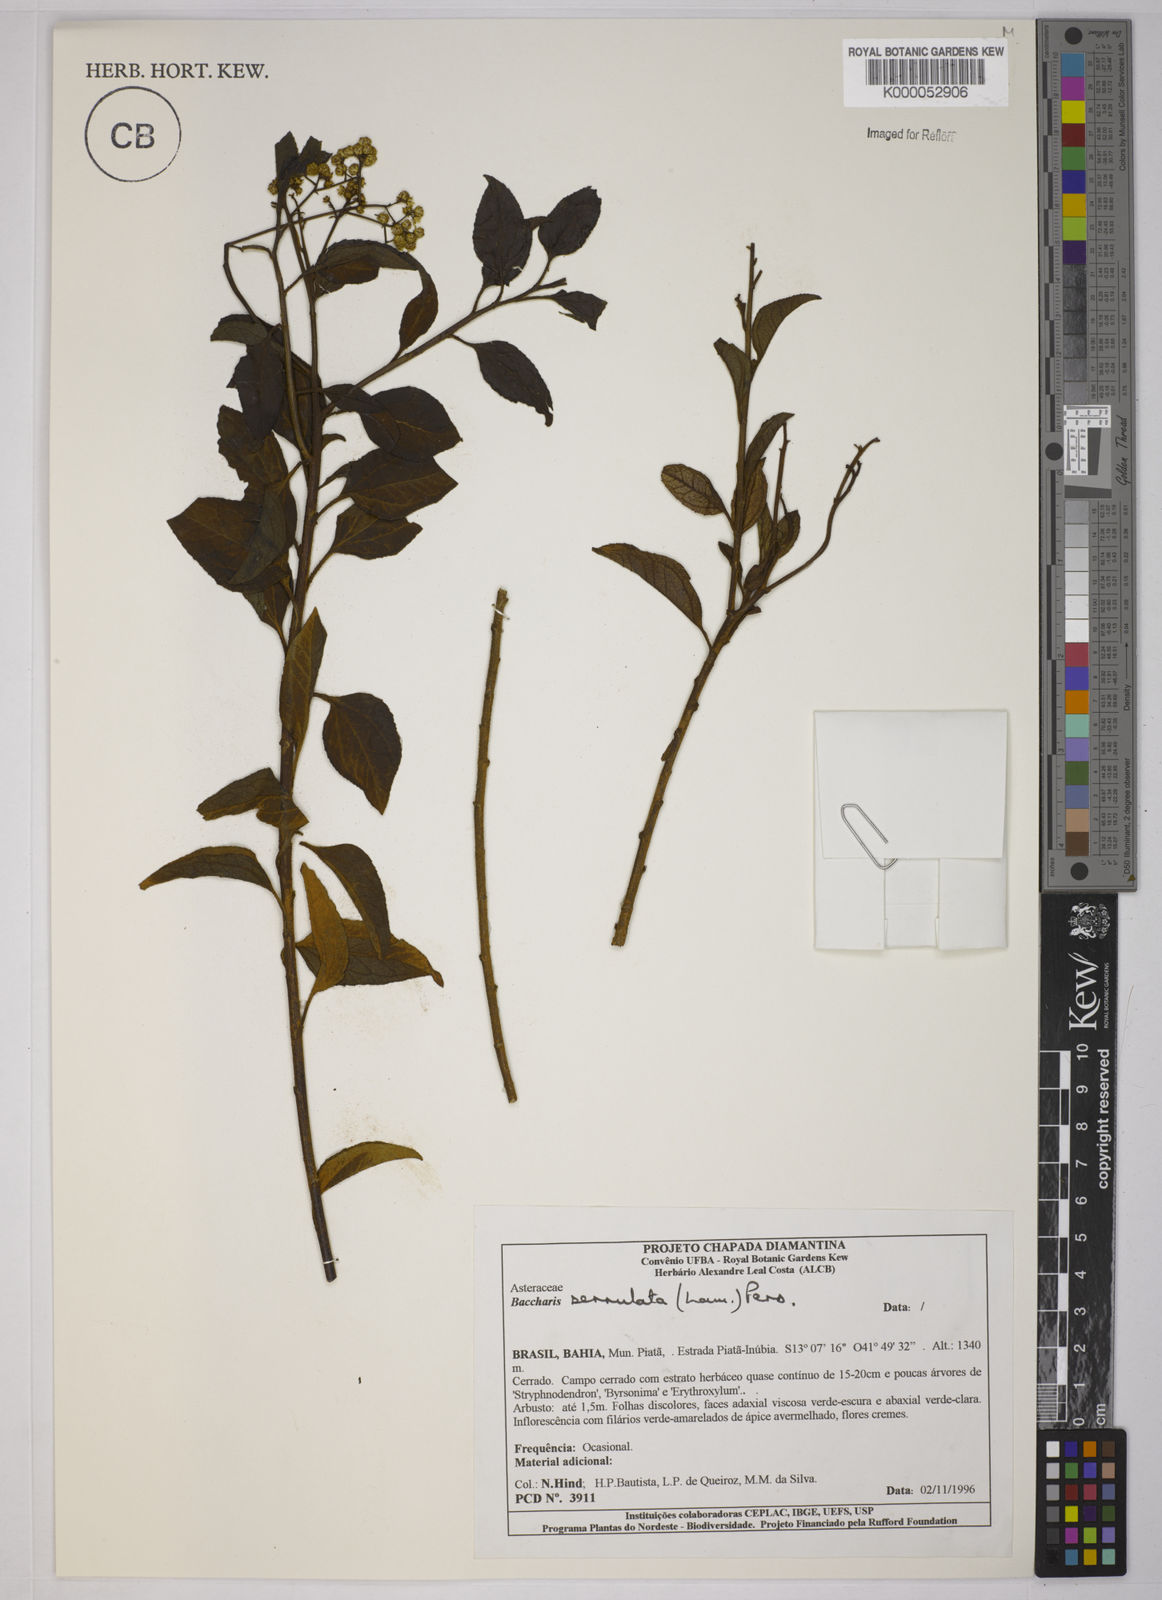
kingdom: Plantae
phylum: Tracheophyta
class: Magnoliopsida
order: Asterales
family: Asteraceae
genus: Baccharis
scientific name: Baccharis serrulata
